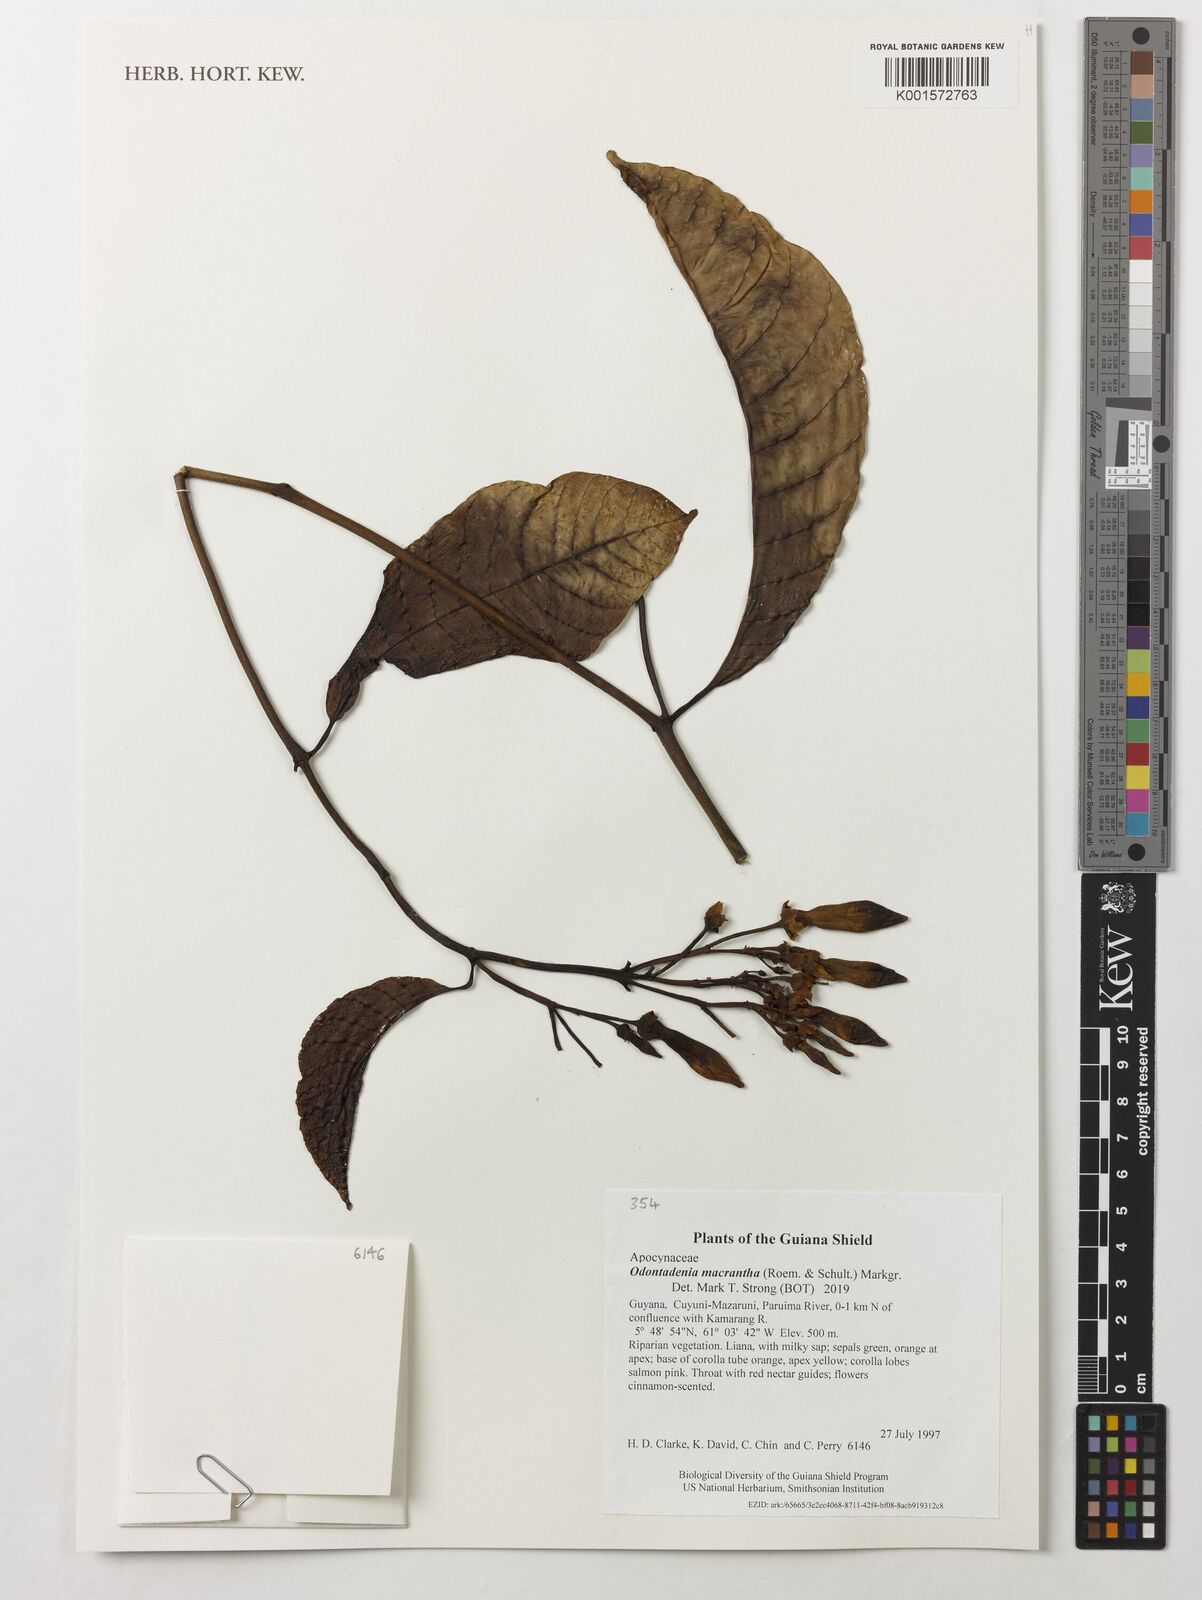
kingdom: Plantae
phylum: Tracheophyta
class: Magnoliopsida
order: Gentianales
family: Apocynaceae
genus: Odontadenia
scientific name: Odontadenia semidigyna
